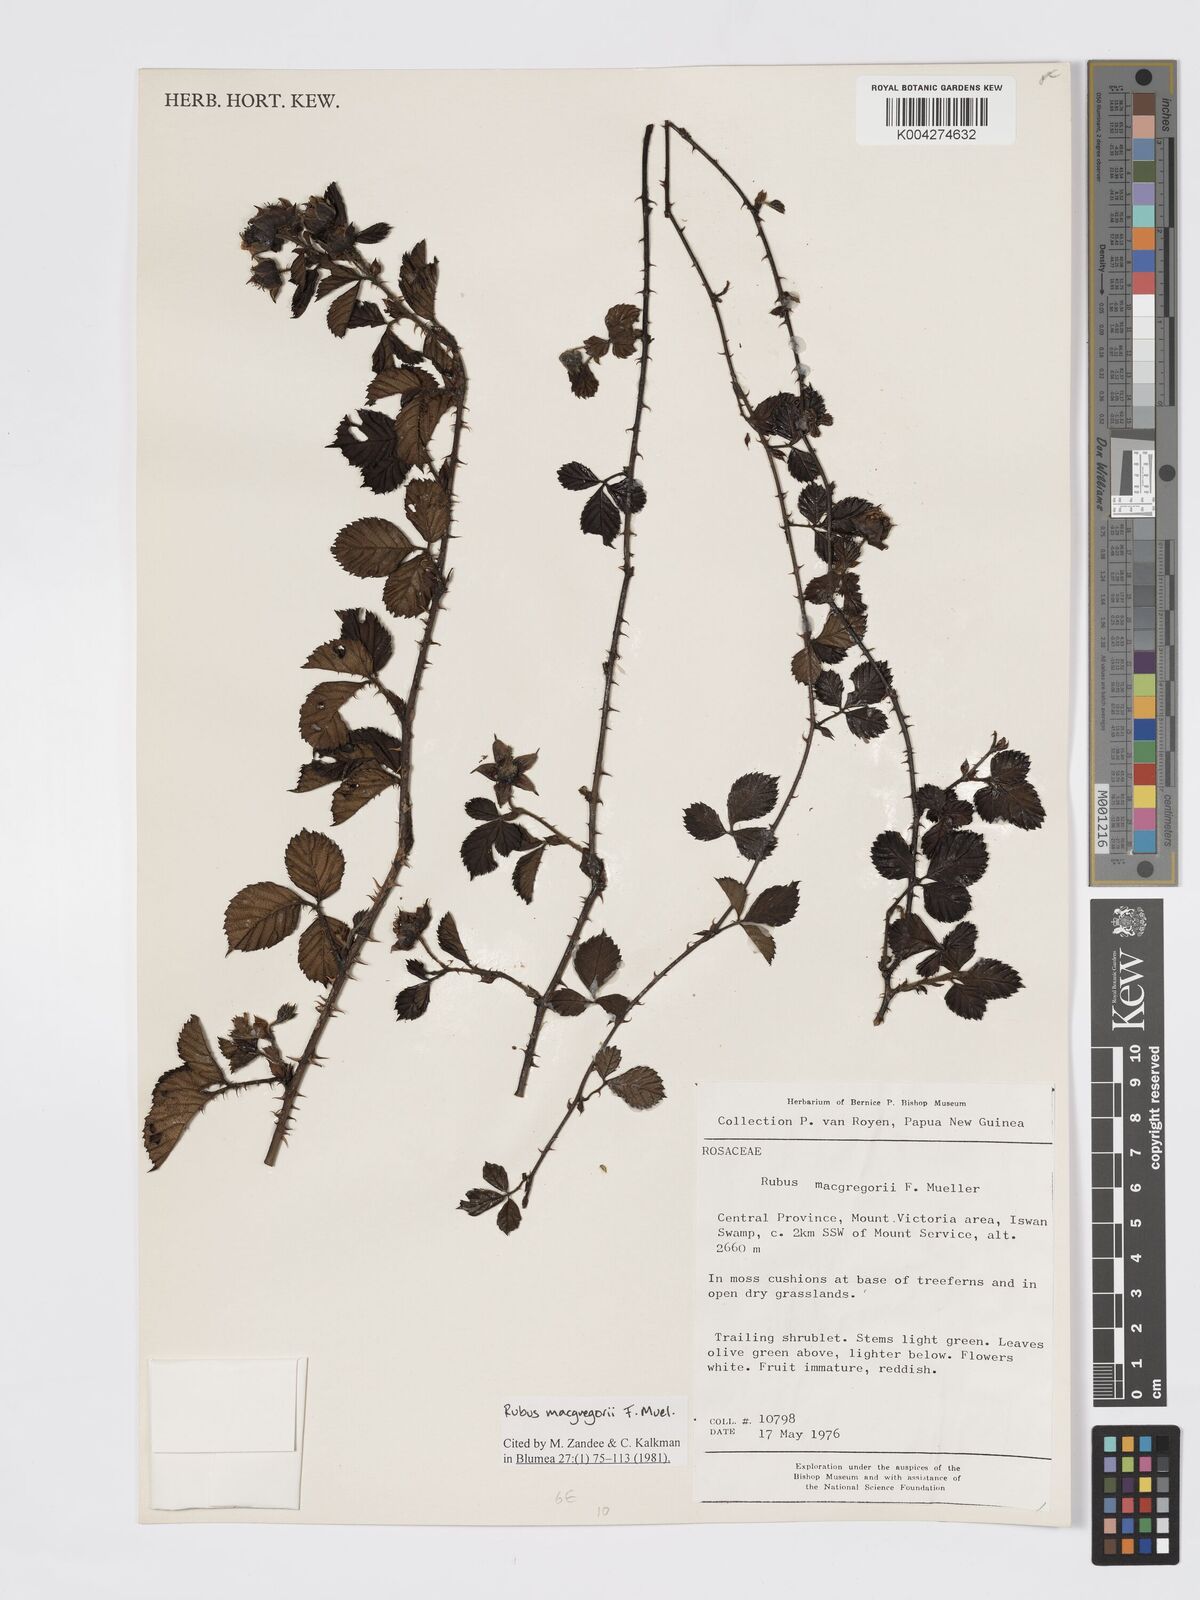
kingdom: Plantae
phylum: Tracheophyta
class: Magnoliopsida
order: Rosales
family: Rosaceae
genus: Rubus
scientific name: Rubus macgregorii
